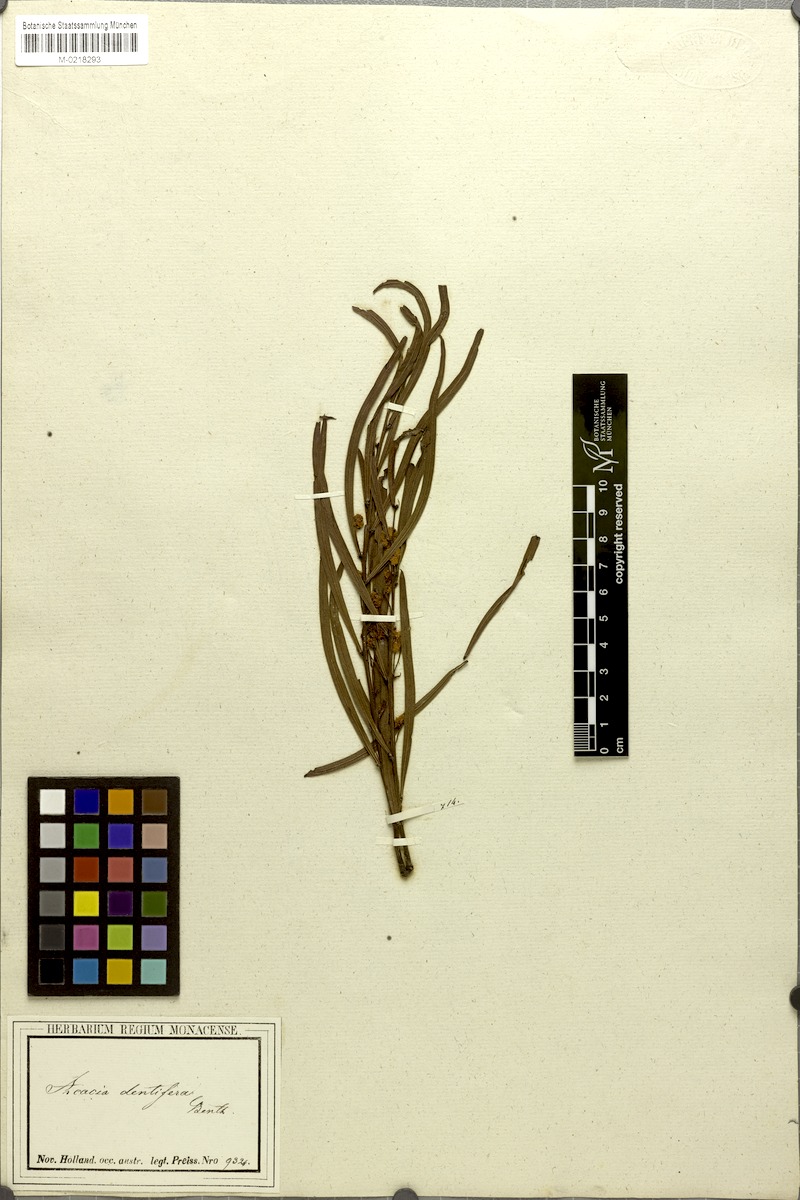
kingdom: Plantae
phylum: Tracheophyta
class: Magnoliopsida
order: Fabales
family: Fabaceae
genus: Acacia
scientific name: Acacia dentifera
